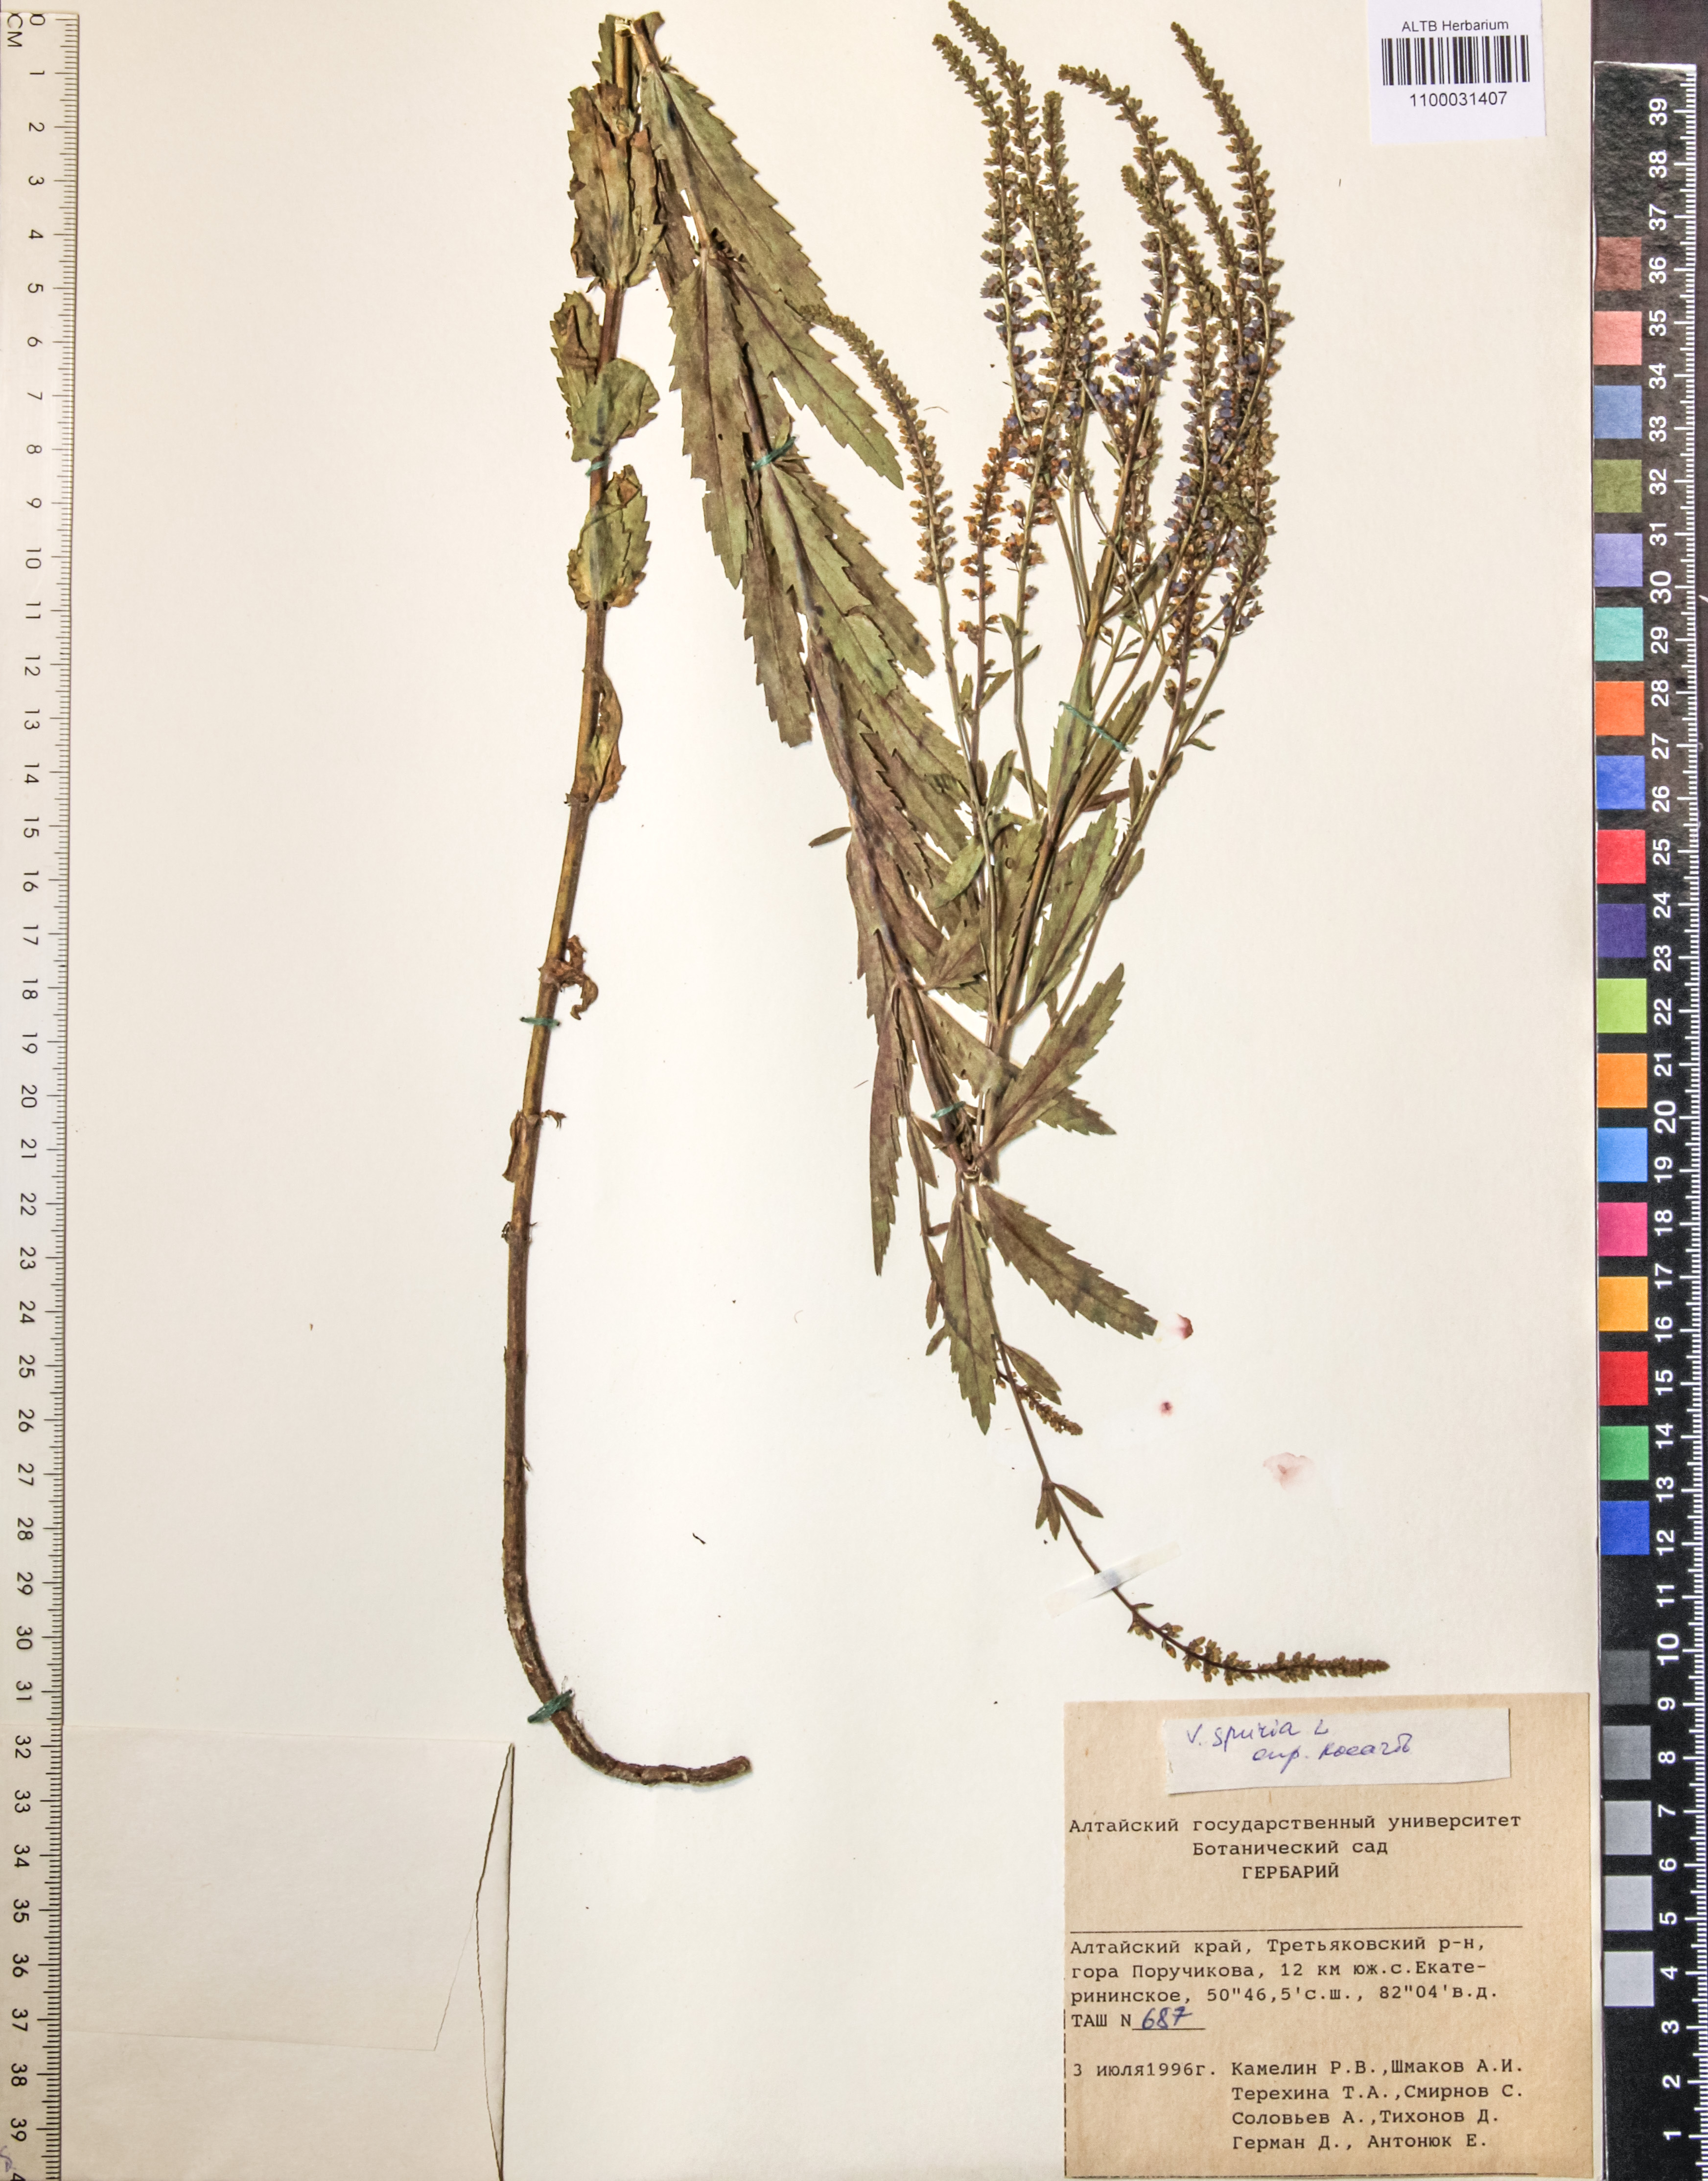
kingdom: Plantae
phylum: Tracheophyta
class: Magnoliopsida
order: Lamiales
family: Plantaginaceae
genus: Veronica
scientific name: Veronica spuria
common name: Bastard speedwell
